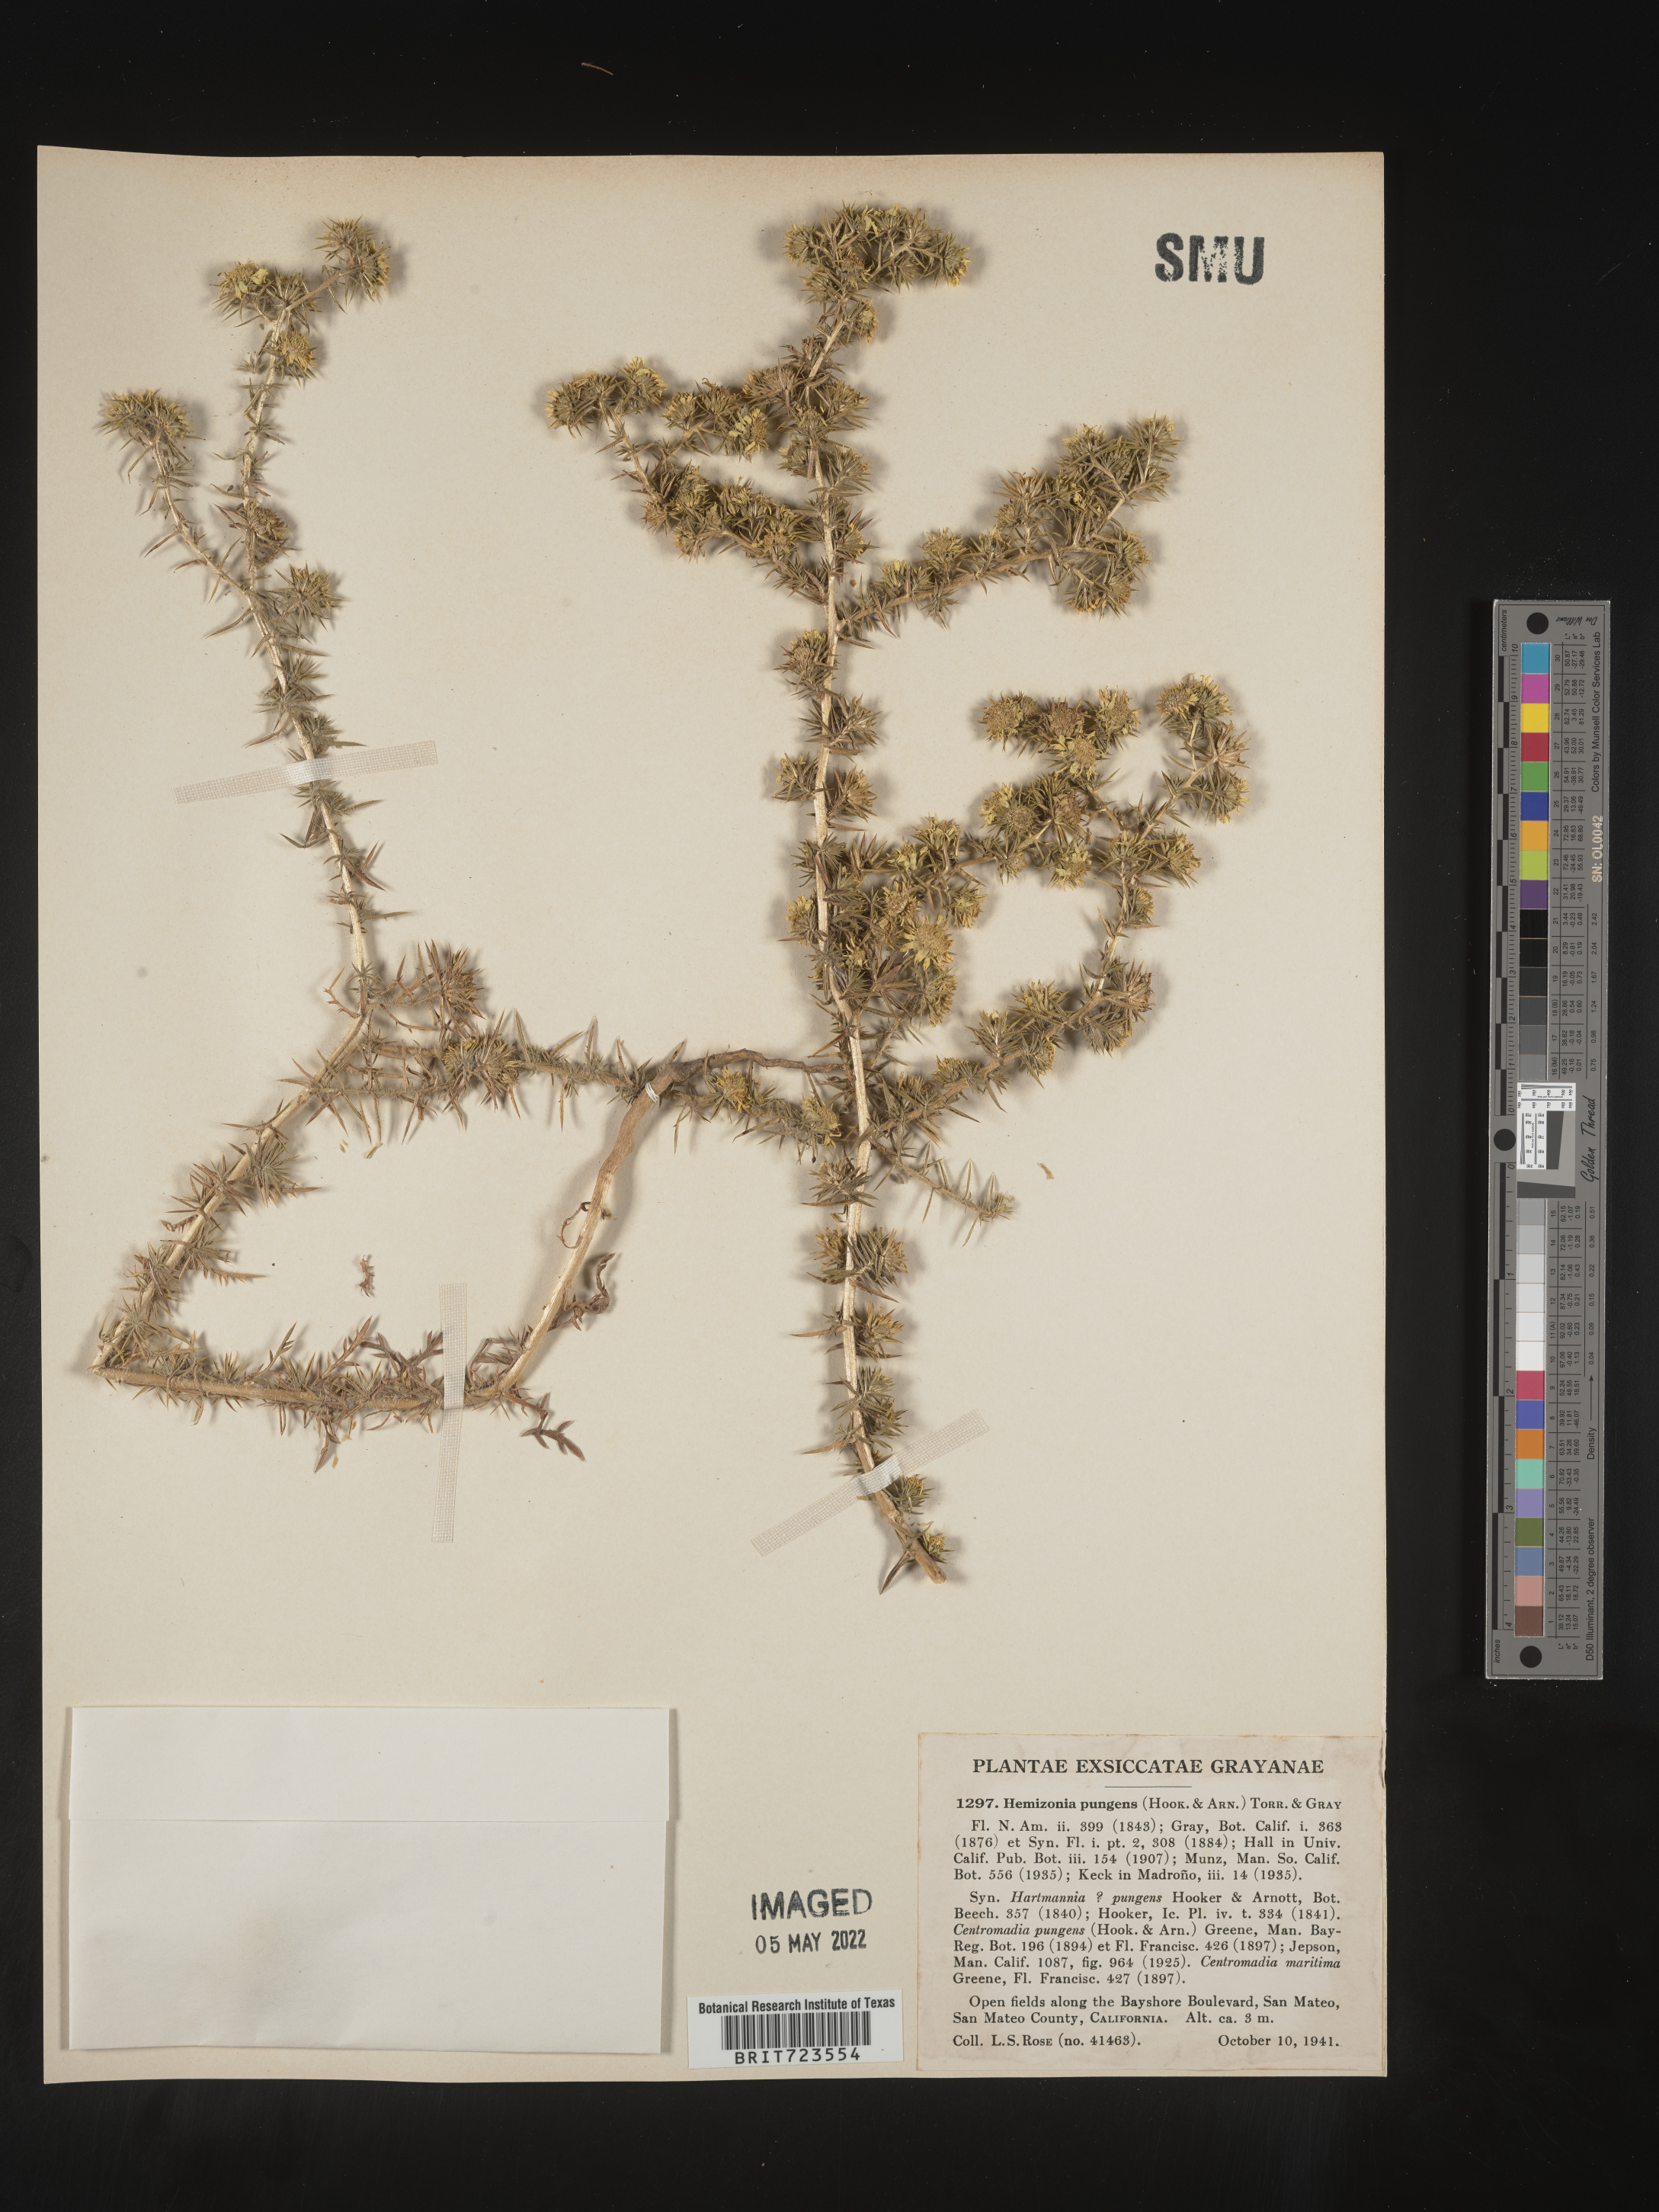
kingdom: Plantae
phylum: Tracheophyta
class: Magnoliopsida
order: Asterales
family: Asteraceae
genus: Hemizonia
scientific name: Hemizonia
